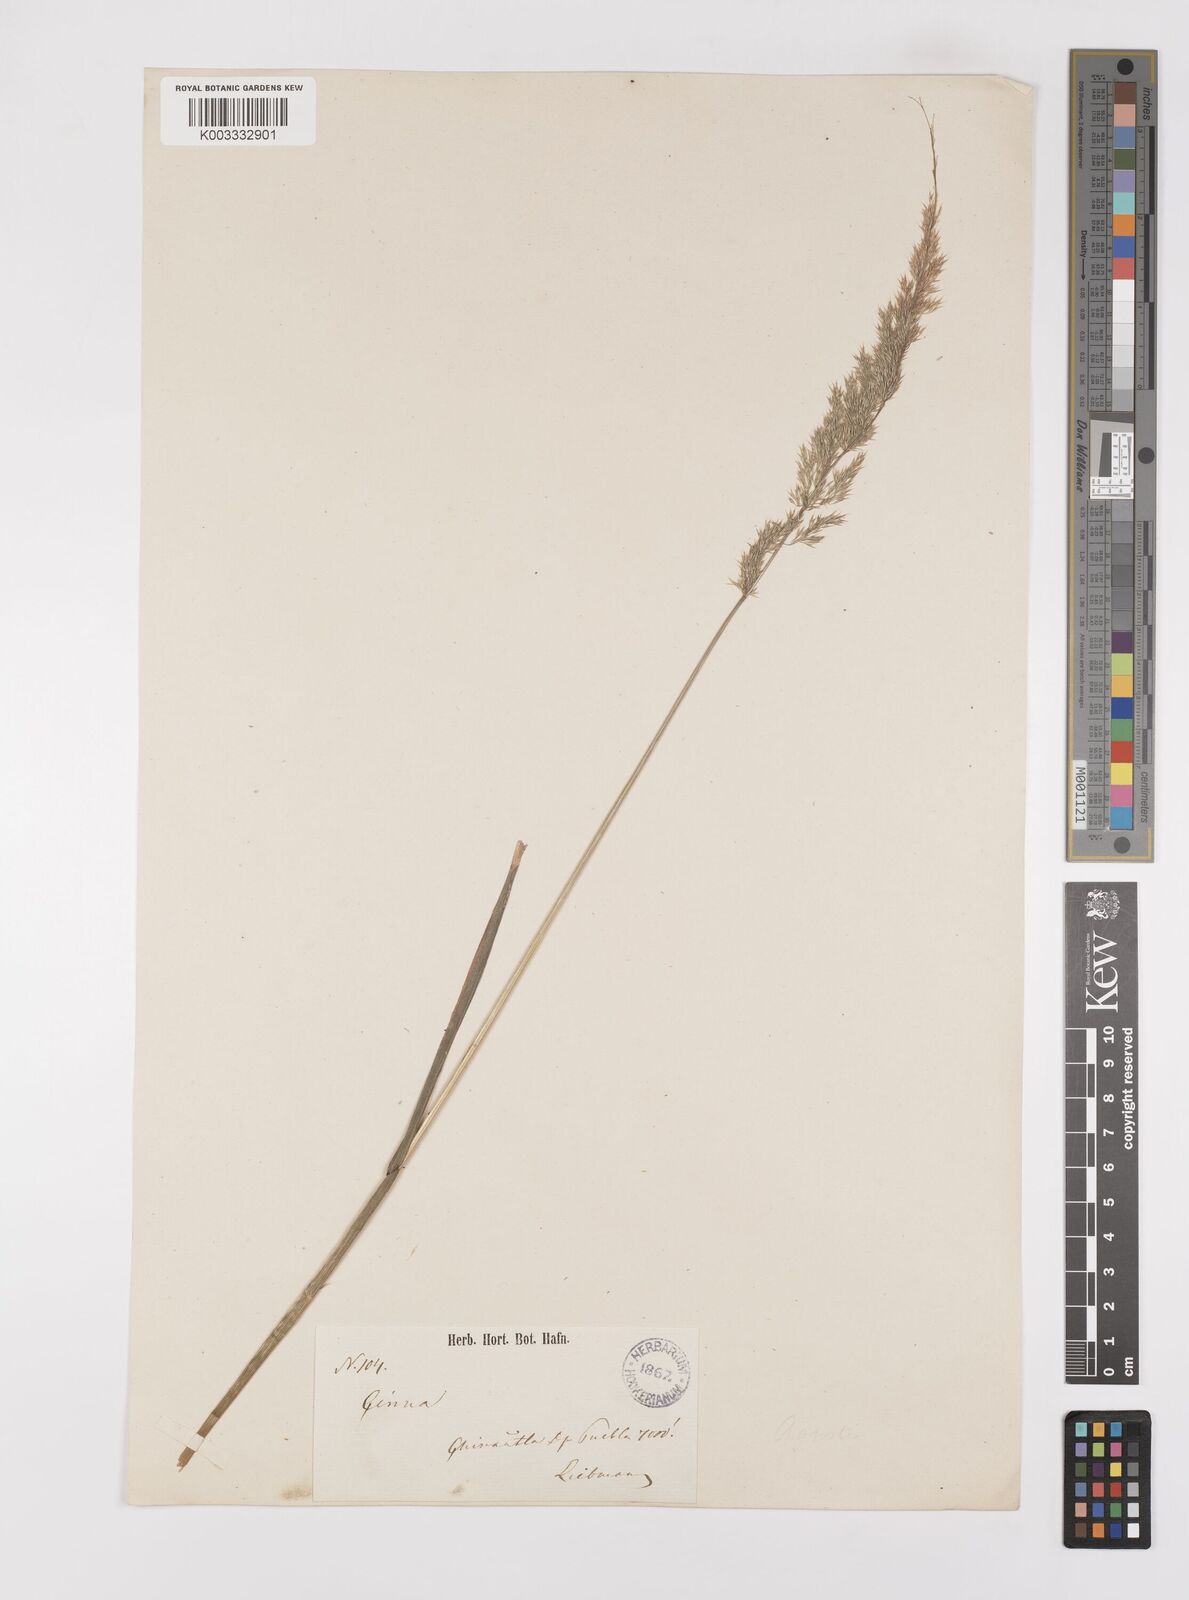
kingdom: Plantae
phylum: Tracheophyta
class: Liliopsida
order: Poales
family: Poaceae
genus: Polypogon
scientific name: Polypogon elongatus
